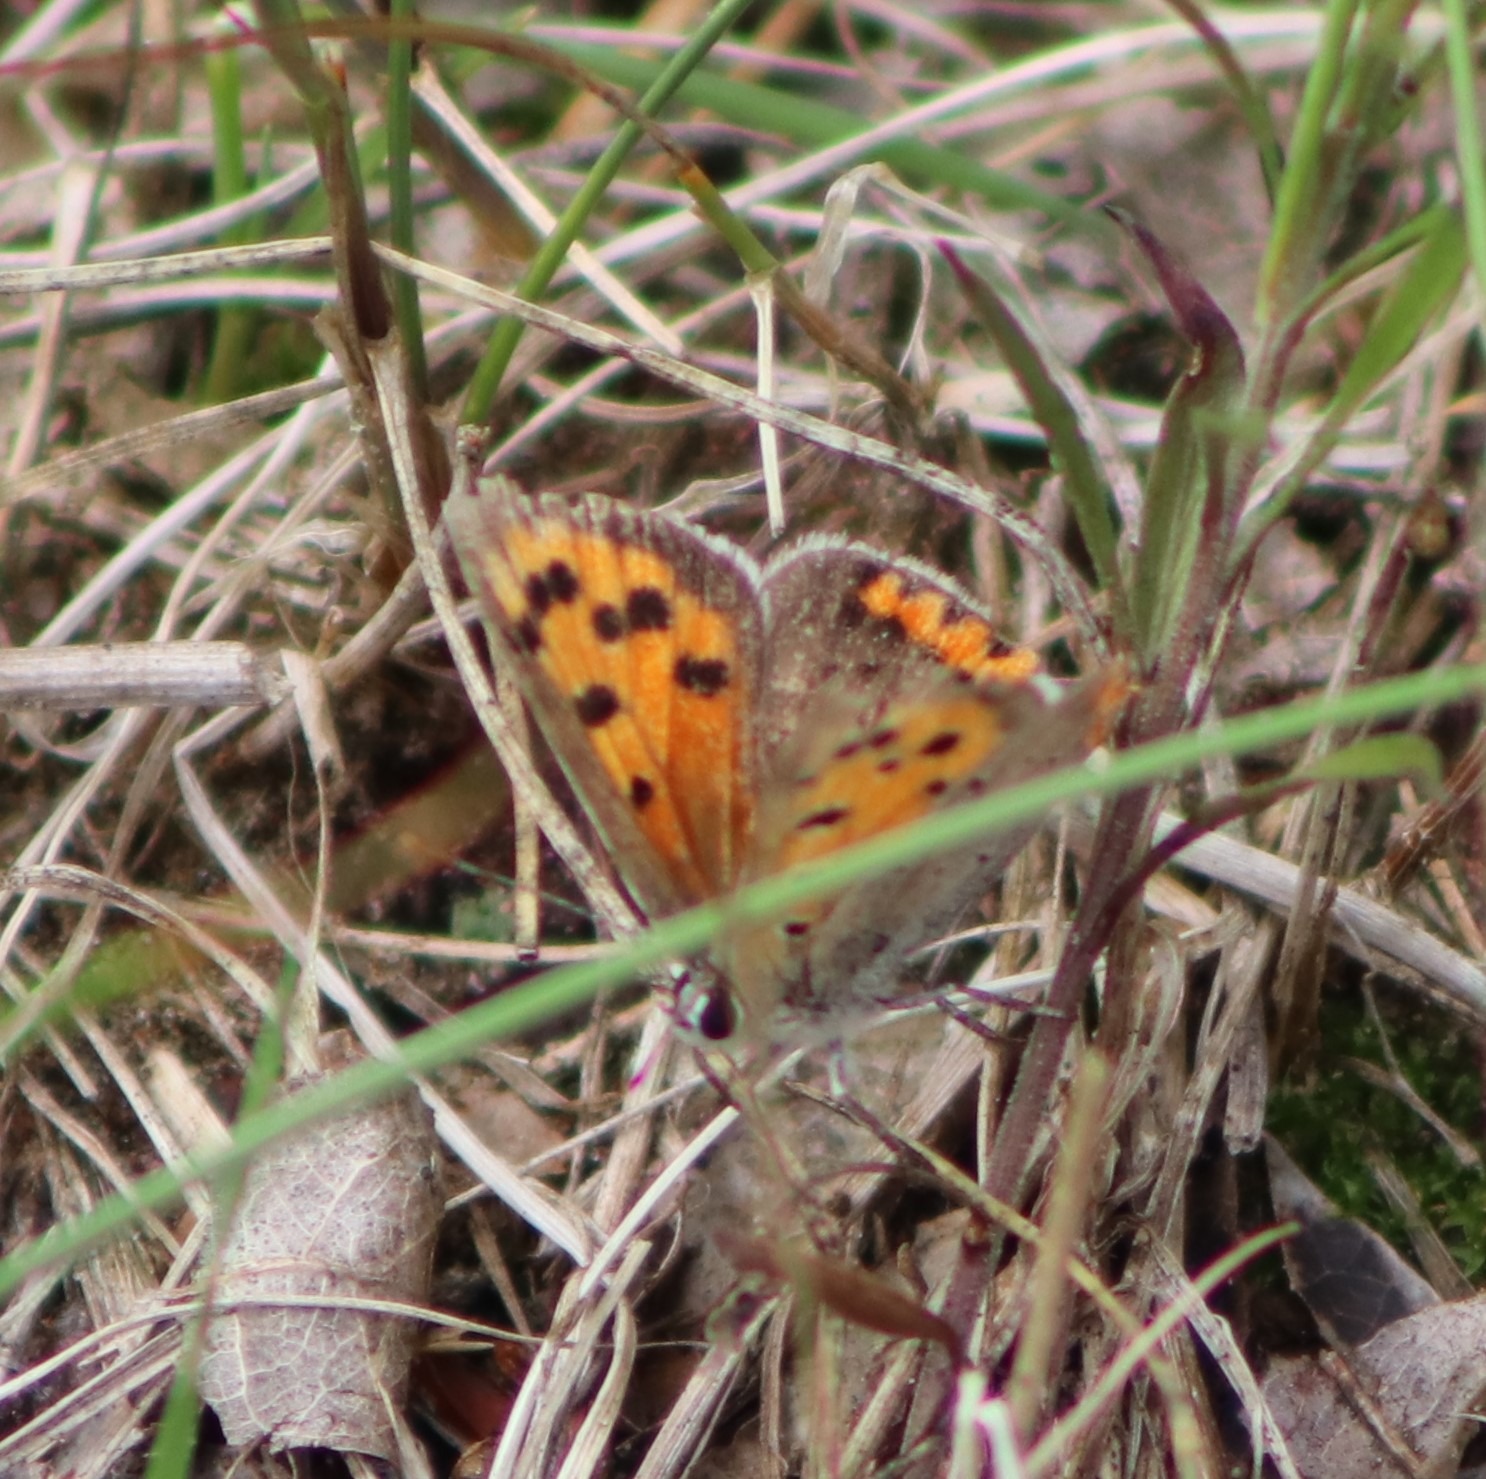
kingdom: Animalia
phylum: Arthropoda
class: Insecta
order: Lepidoptera
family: Lycaenidae
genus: Lycaena
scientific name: Lycaena phlaeas
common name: Lille ildfugl
